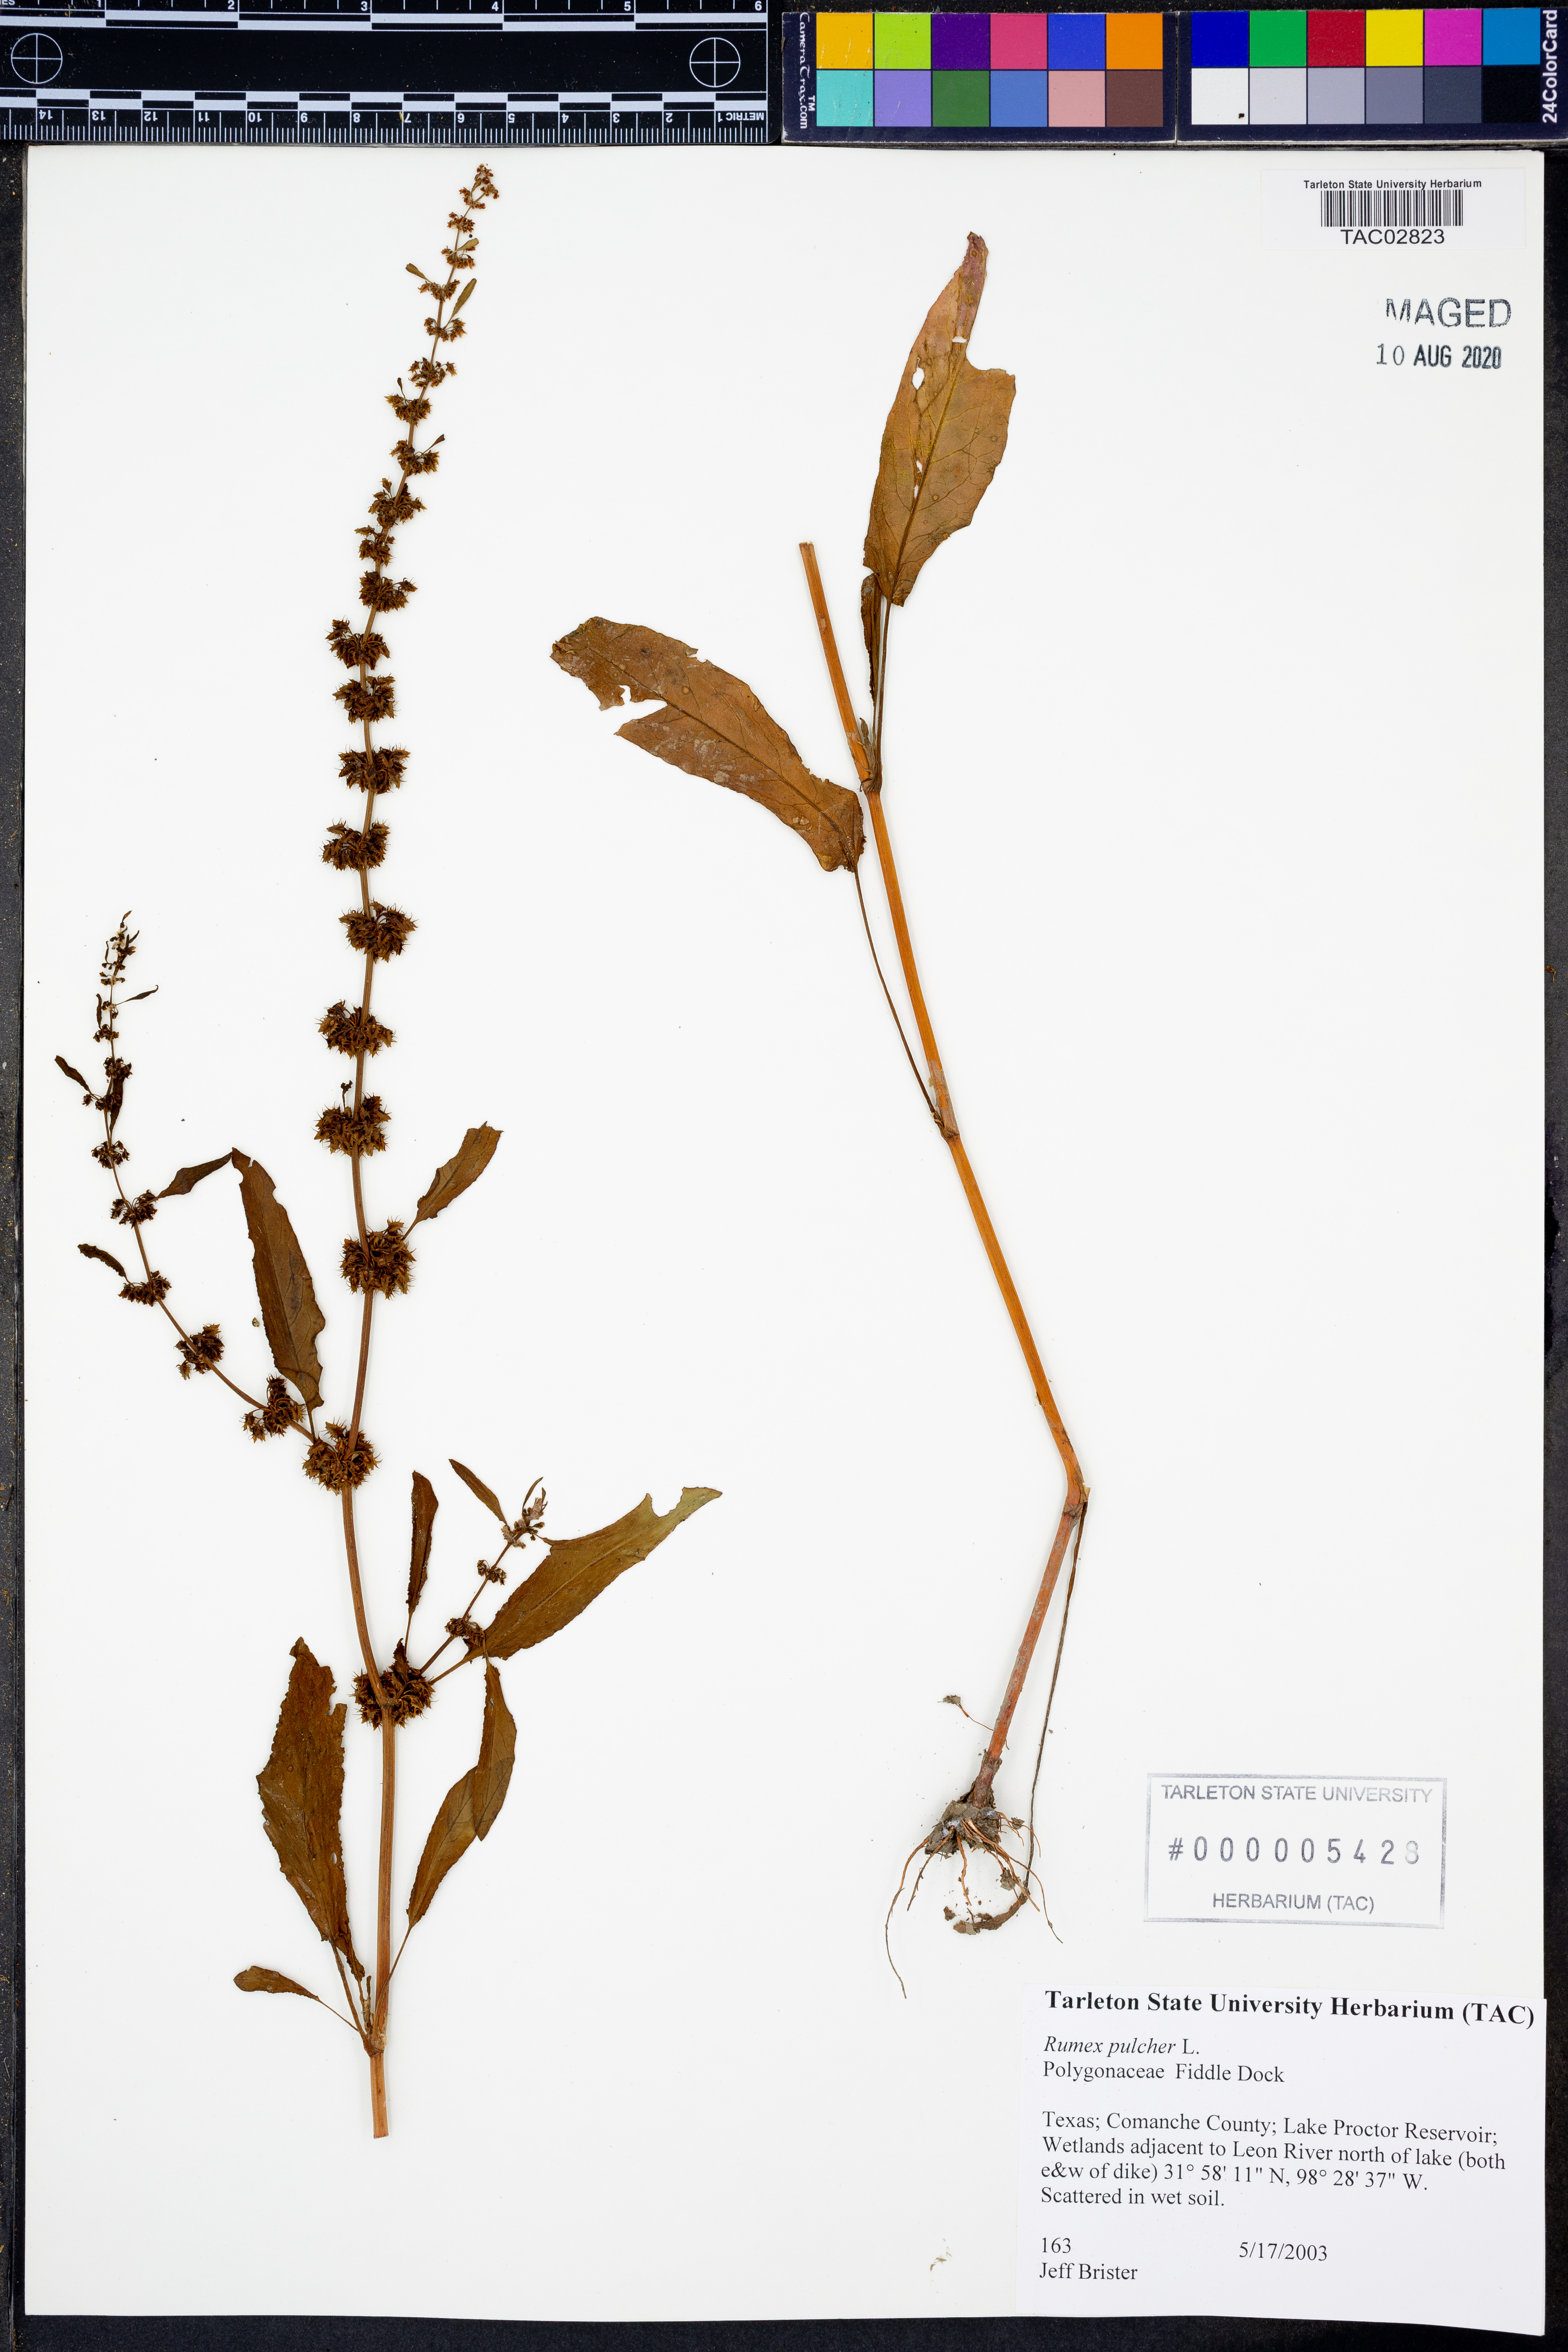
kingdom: Plantae
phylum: Tracheophyta
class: Magnoliopsida
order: Caryophyllales
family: Polygonaceae
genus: Rumex
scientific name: Rumex pulcher
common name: Fiddle dock
